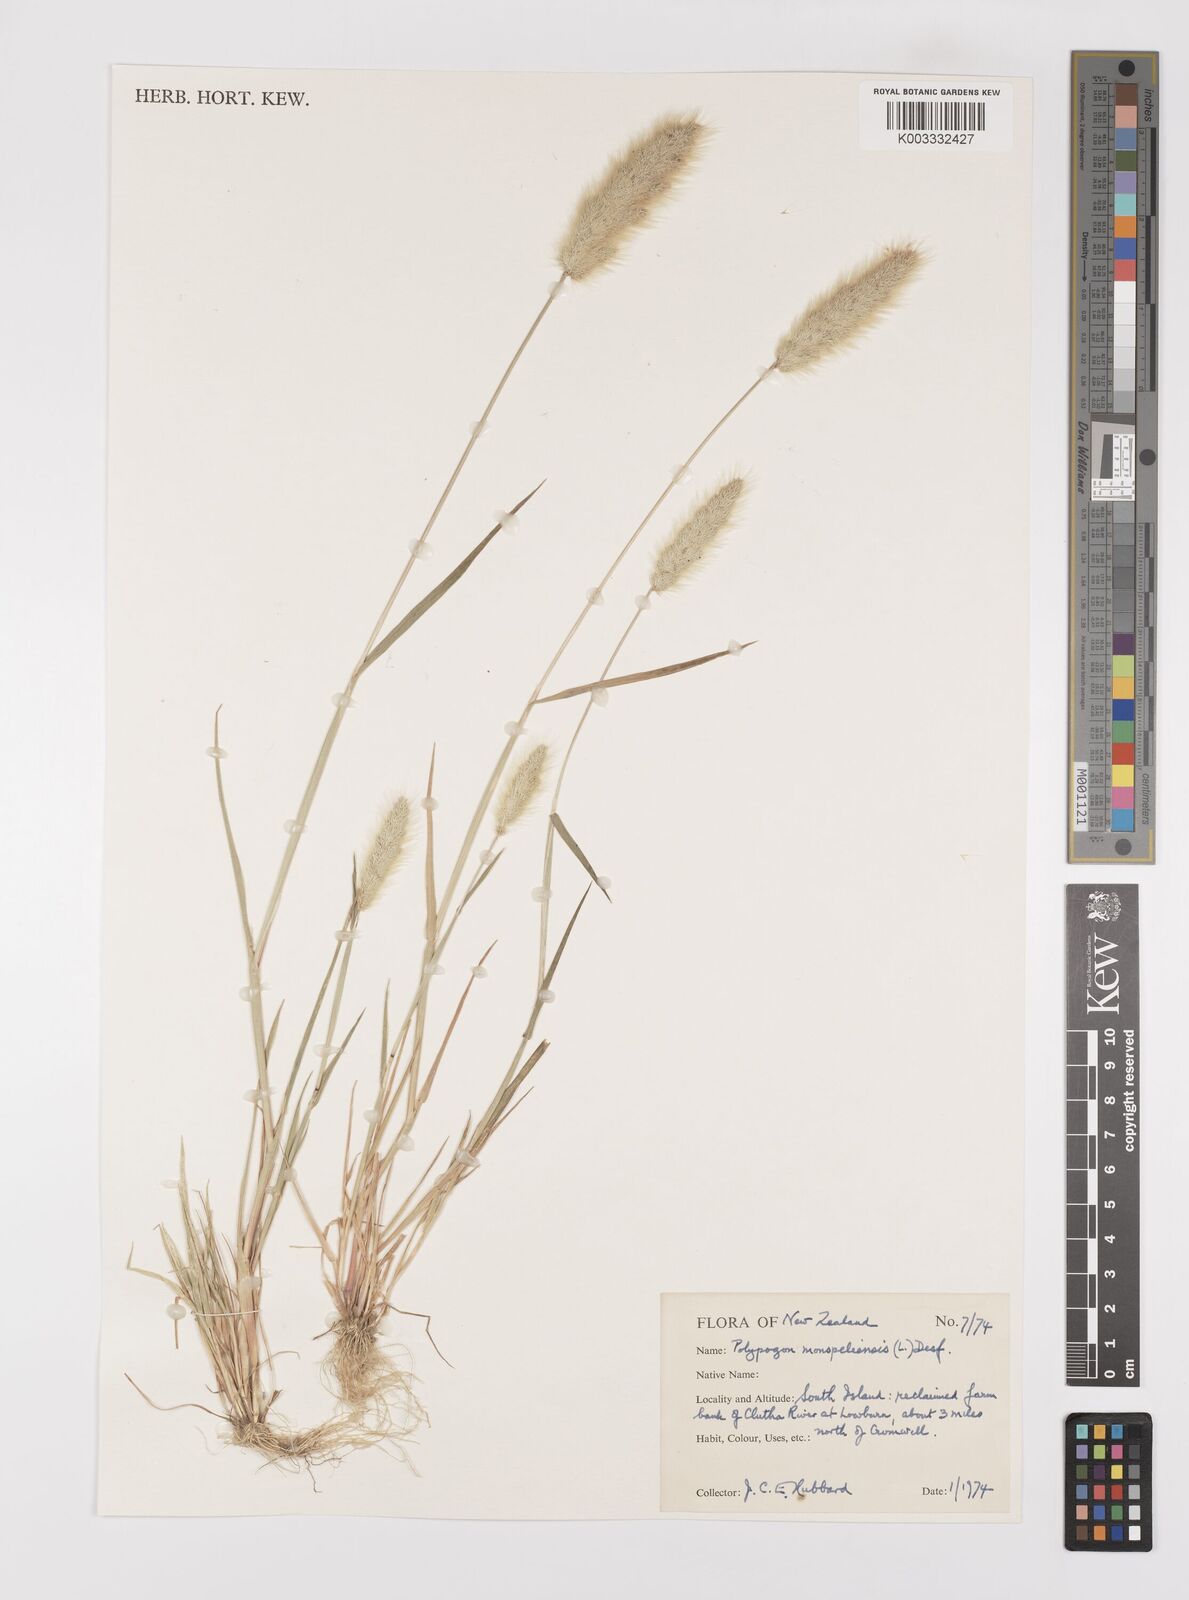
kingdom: Plantae
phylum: Tracheophyta
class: Liliopsida
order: Poales
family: Poaceae
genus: Polypogon
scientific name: Polypogon monspeliensis
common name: Annual rabbitsfoot grass
